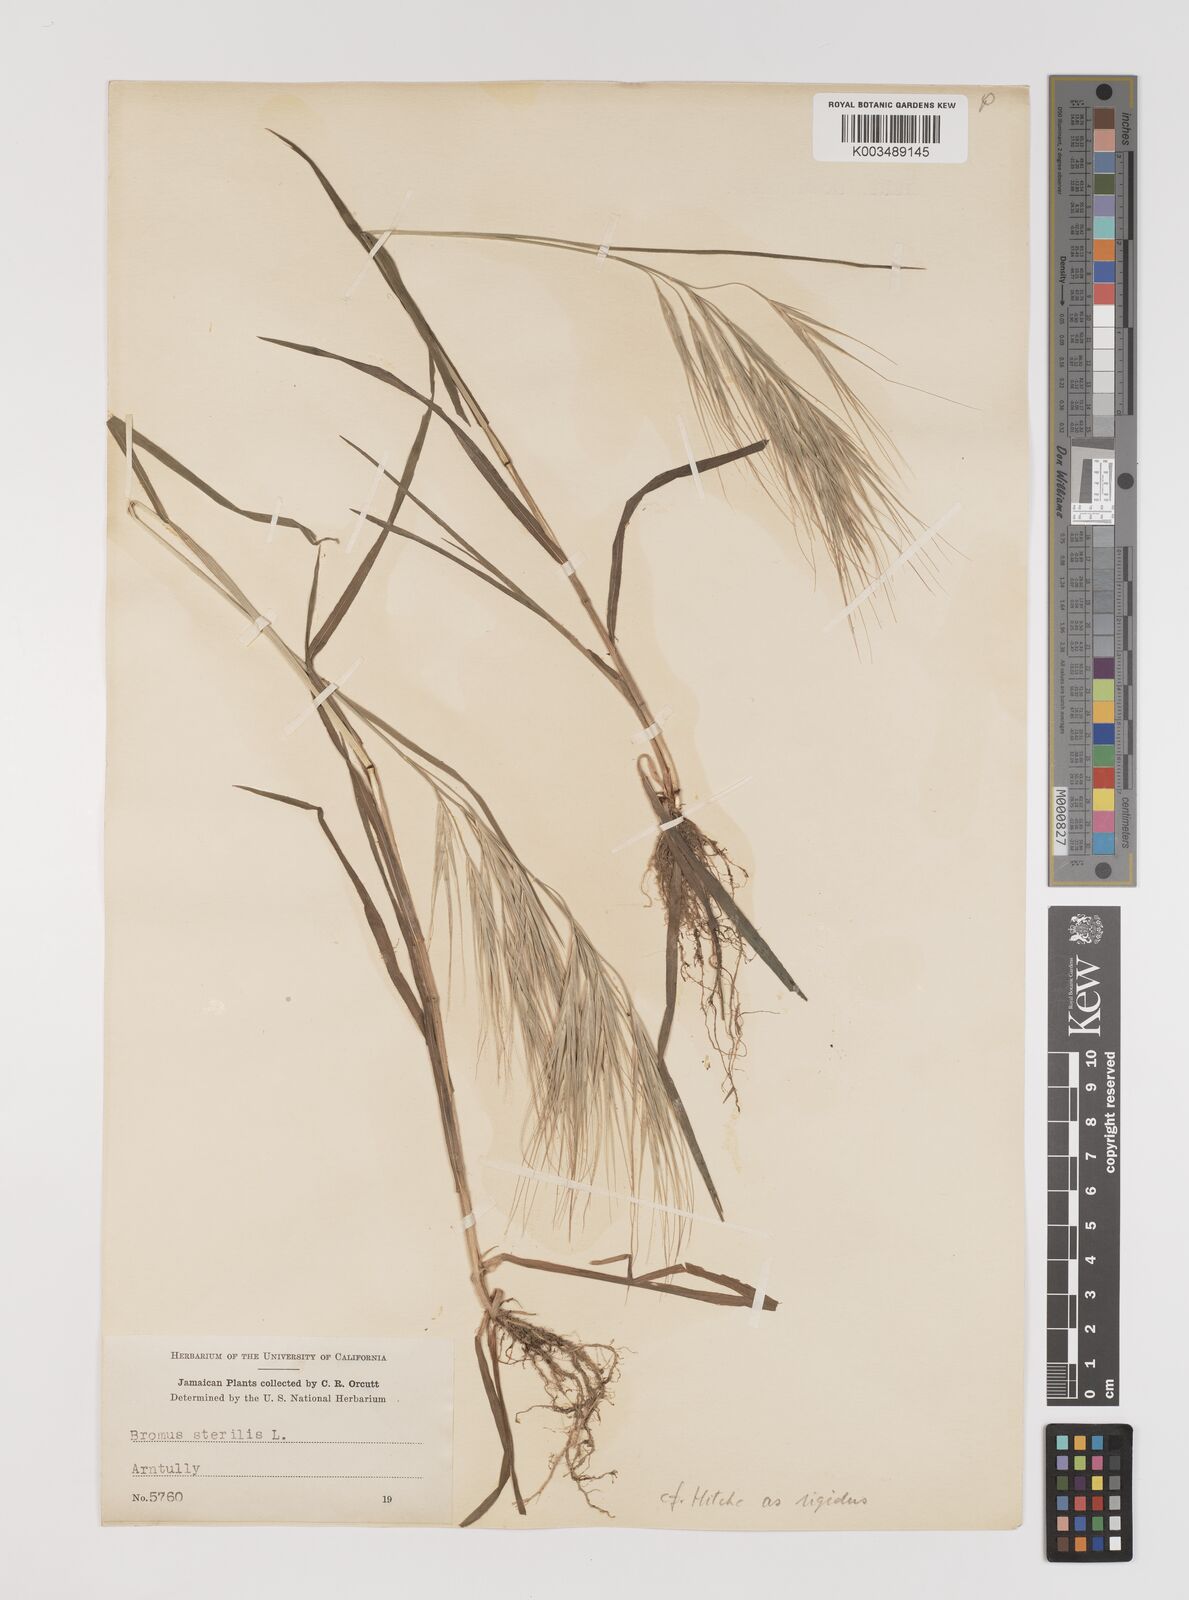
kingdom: Plantae
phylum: Tracheophyta
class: Liliopsida
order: Poales
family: Poaceae
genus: Bromus
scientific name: Bromus
